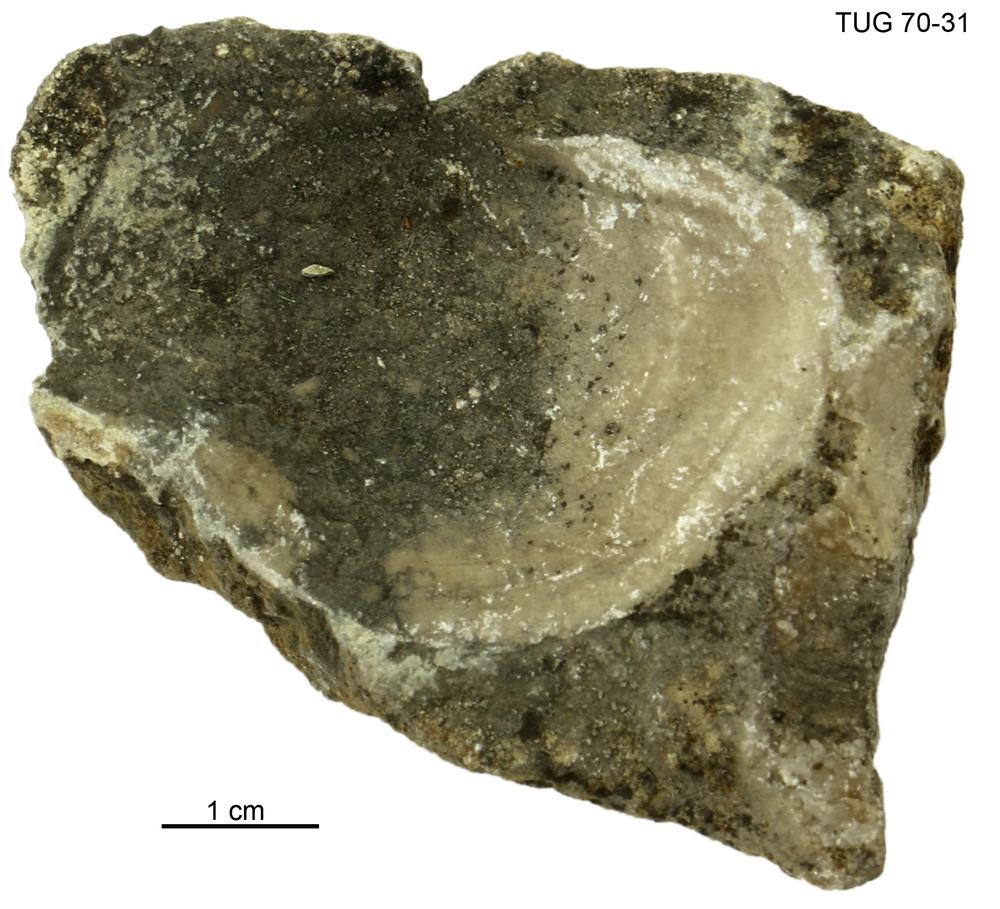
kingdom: Animalia
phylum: Mollusca
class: Bivalvia
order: Lucinida
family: Lucinidae
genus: Illionia
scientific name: Illionia Lucina prisca
